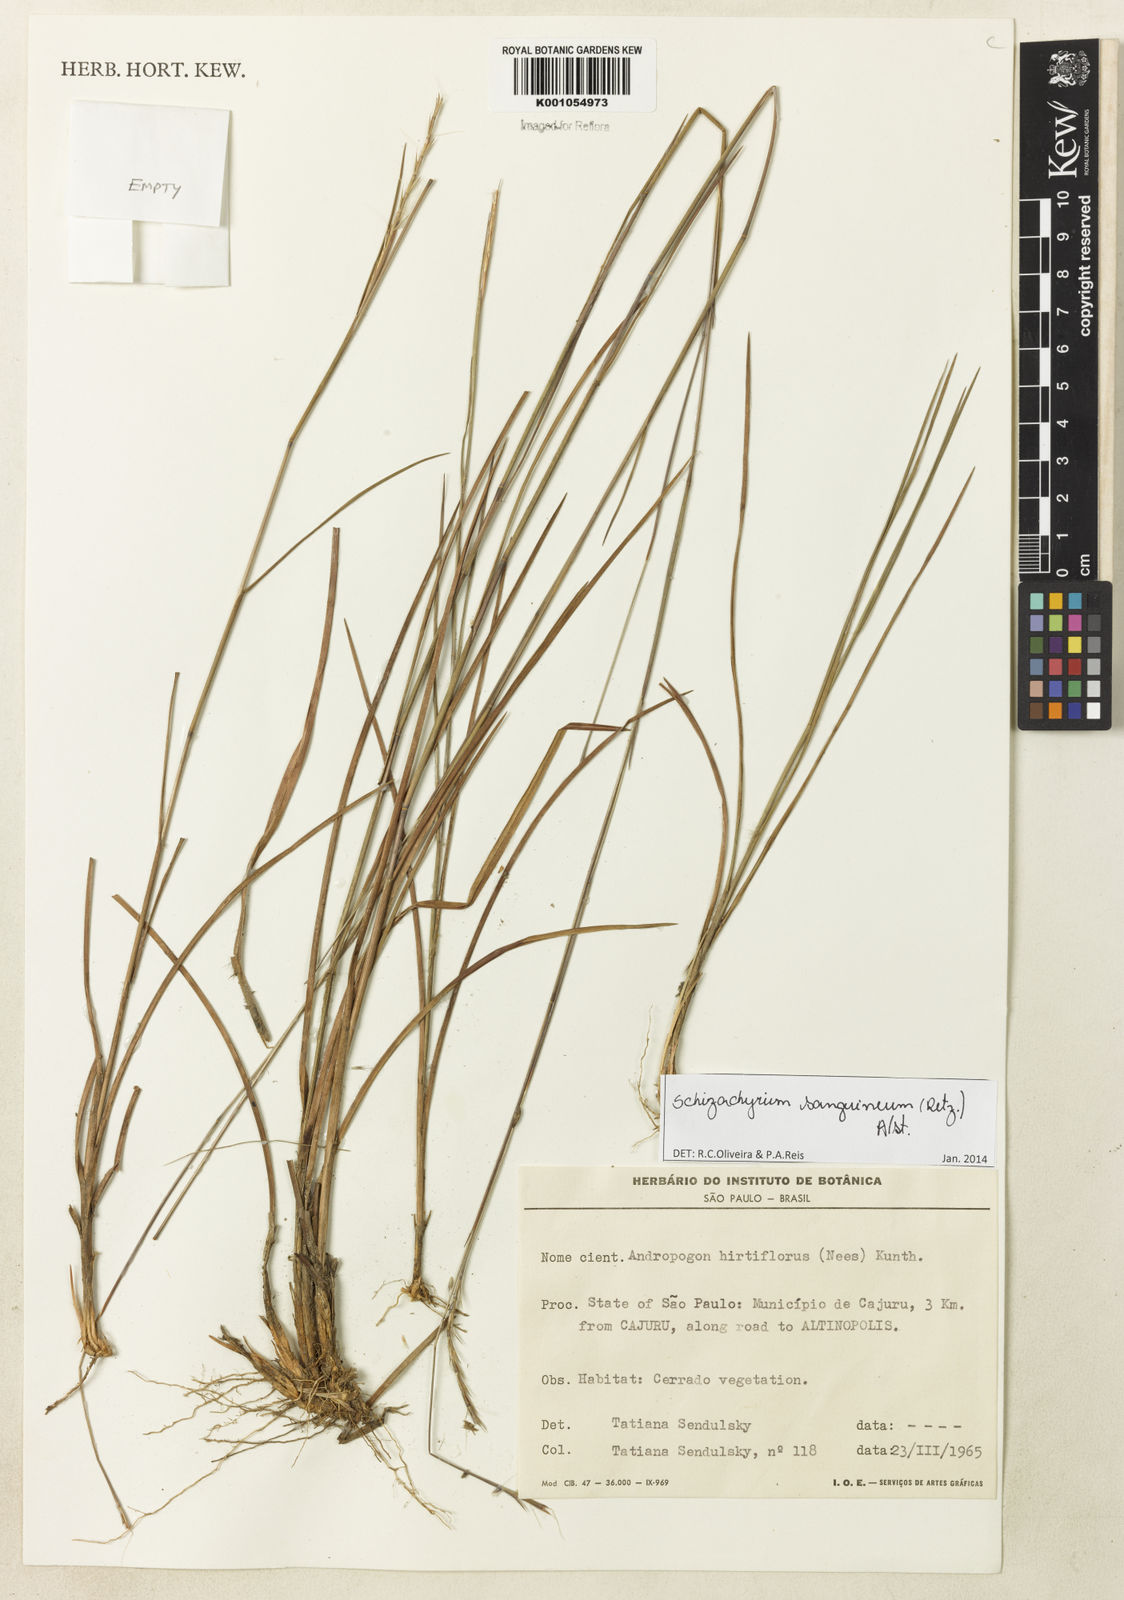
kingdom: Plantae
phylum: Tracheophyta
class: Liliopsida
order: Poales
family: Poaceae
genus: Schizachyrium
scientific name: Schizachyrium sanguineum
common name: Crimson bluestem
